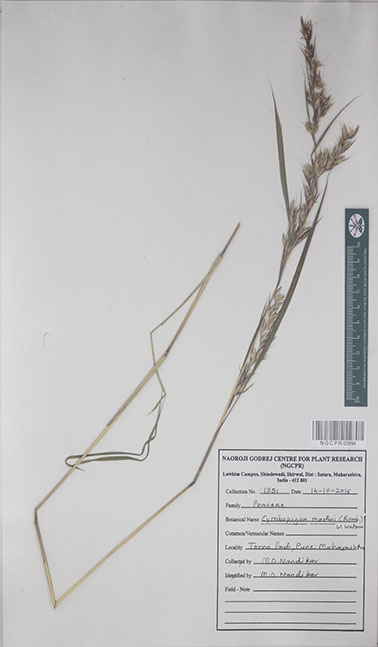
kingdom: Plantae
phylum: Tracheophyta
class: Liliopsida
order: Poales
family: Poaceae
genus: Cymbopogon
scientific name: Cymbopogon martini
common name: Ginger grass
